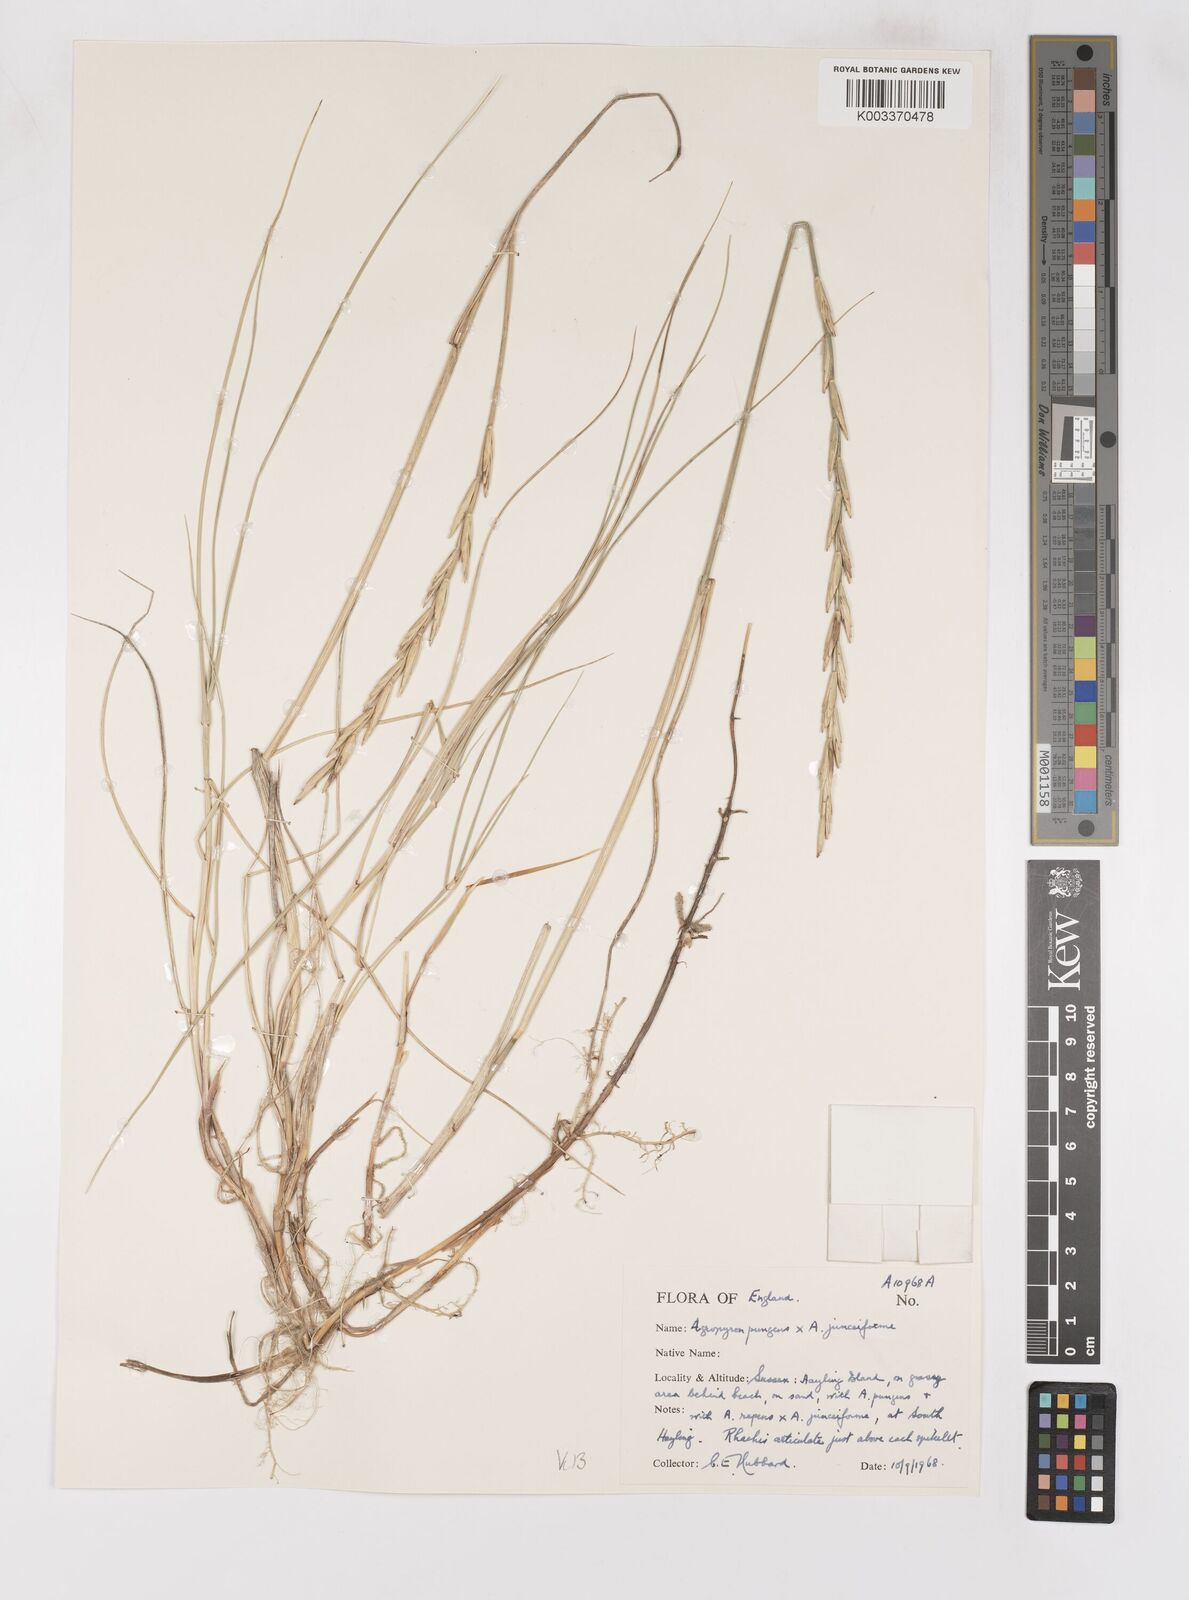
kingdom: Plantae
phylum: Tracheophyta
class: Liliopsida
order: Poales
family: Poaceae
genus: Thinoelymus
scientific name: Thinoelymus obtusiusculus
